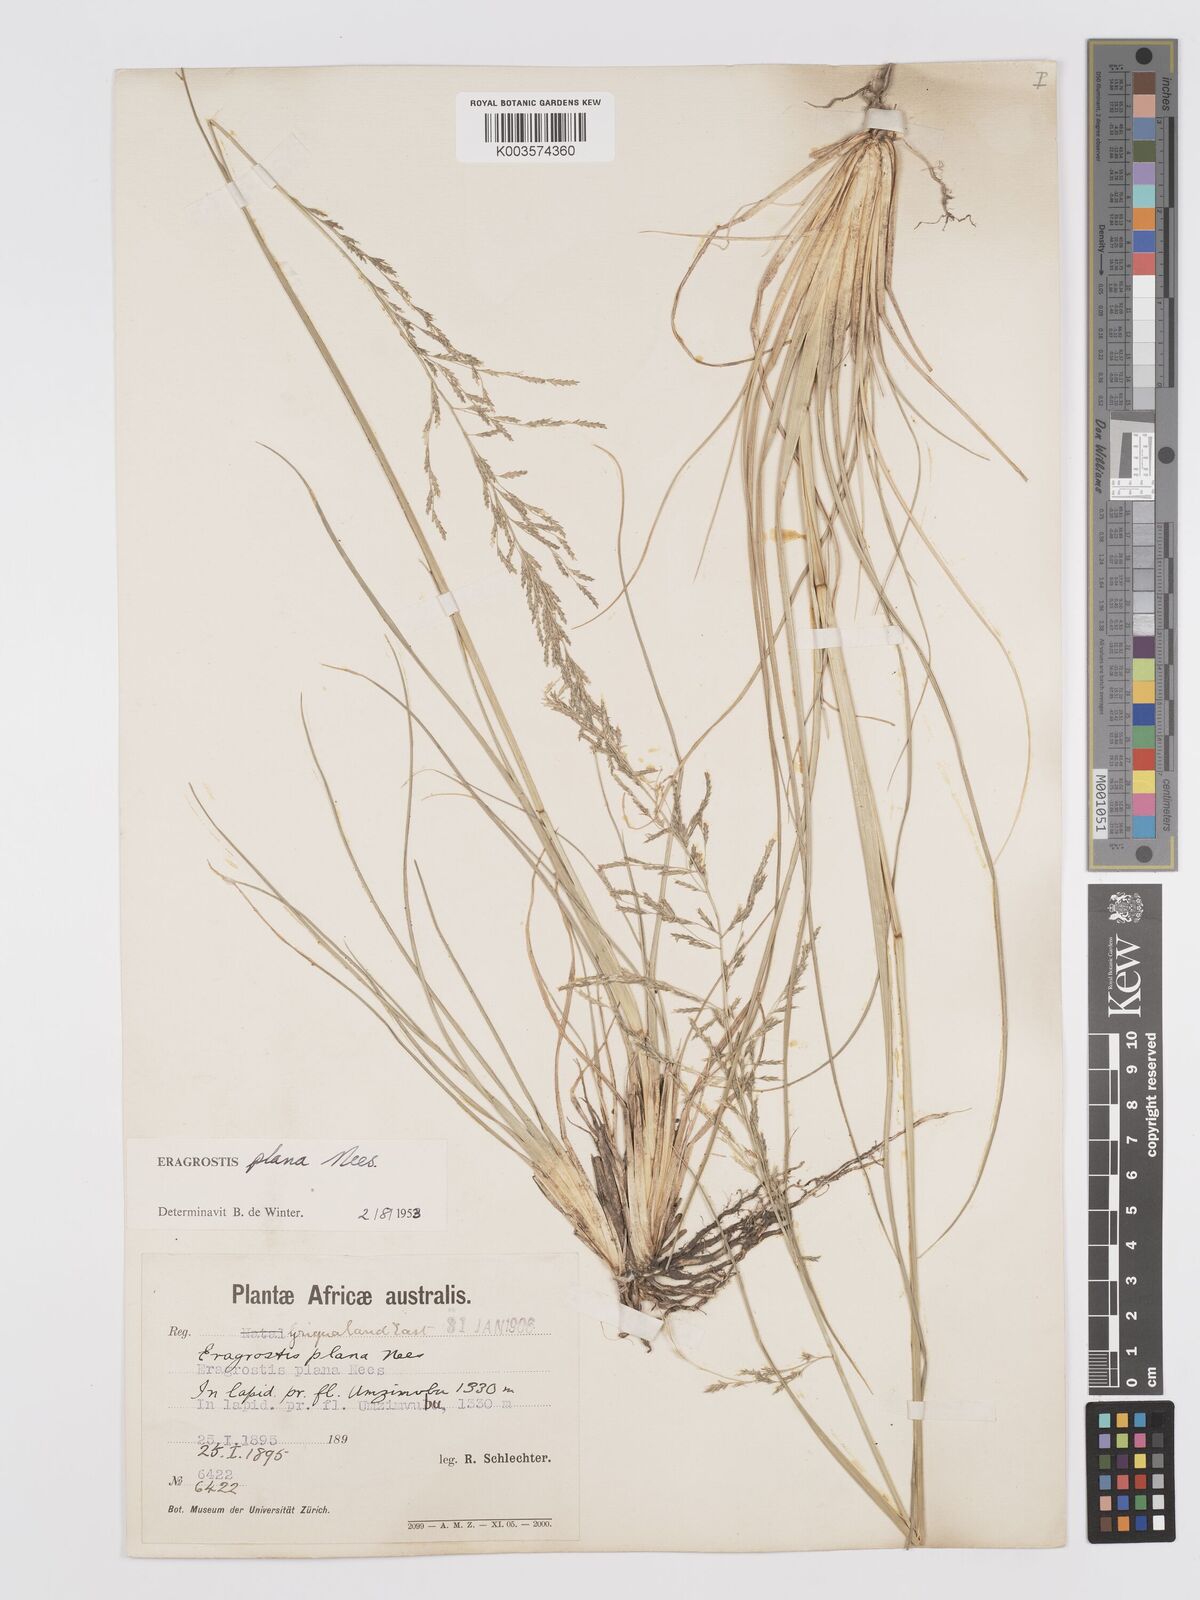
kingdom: Plantae
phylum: Tracheophyta
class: Liliopsida
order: Poales
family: Poaceae
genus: Eragrostis
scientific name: Eragrostis plana
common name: South african lovegrass
